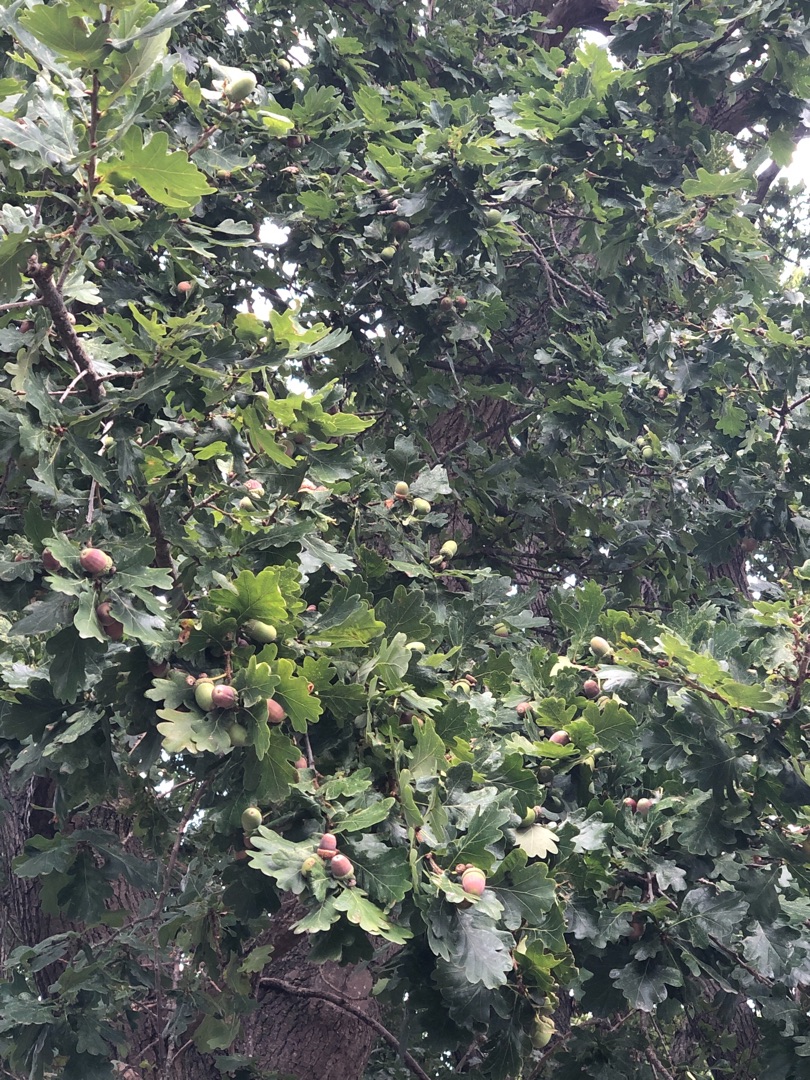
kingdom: Plantae
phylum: Tracheophyta
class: Magnoliopsida
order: Fagales
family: Fagaceae
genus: Quercus
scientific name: Quercus robur
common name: Stilk-eg/almindelig eg
